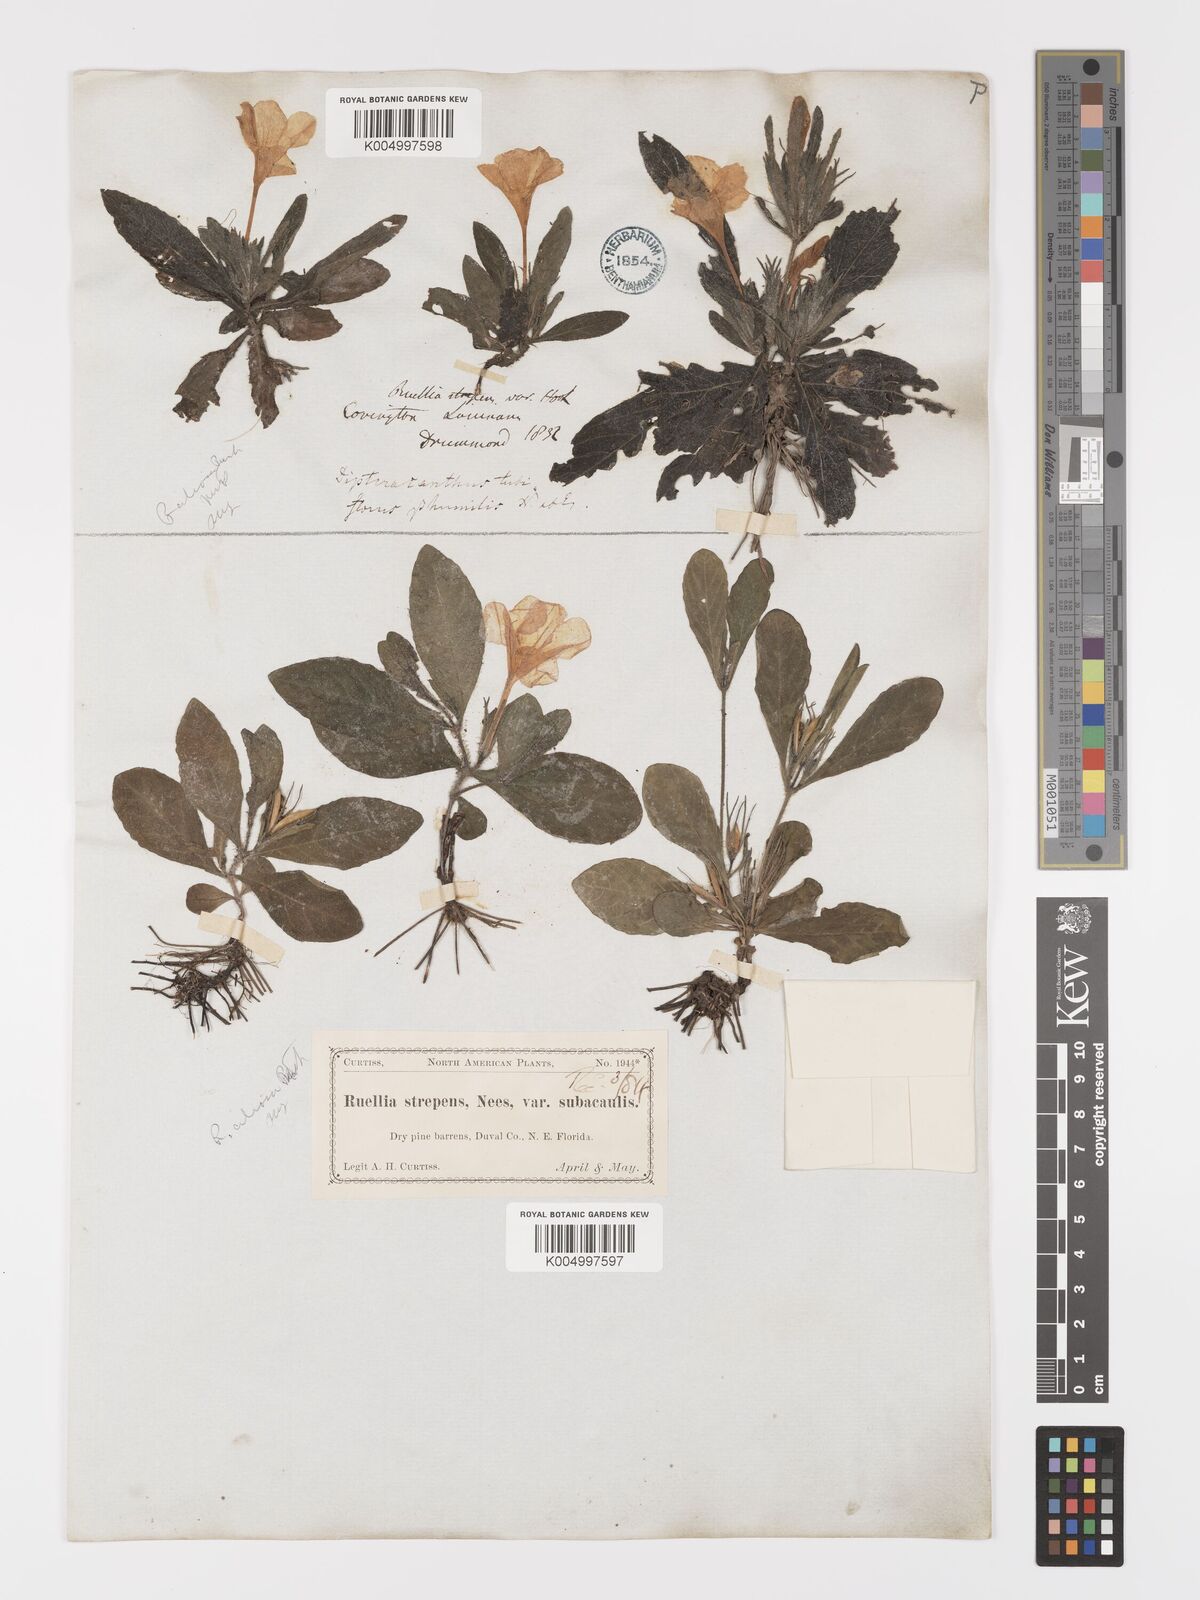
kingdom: Plantae
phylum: Tracheophyta
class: Magnoliopsida
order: Lamiales
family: Acanthaceae
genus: Ruellia
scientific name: Ruellia
